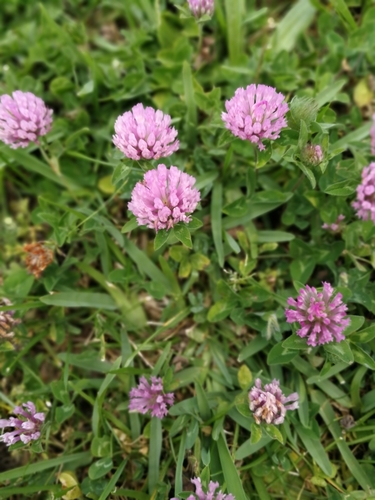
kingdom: Plantae
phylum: Tracheophyta
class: Magnoliopsida
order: Fabales
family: Fabaceae
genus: Trifolium
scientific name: Trifolium pratense
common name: Red clover
